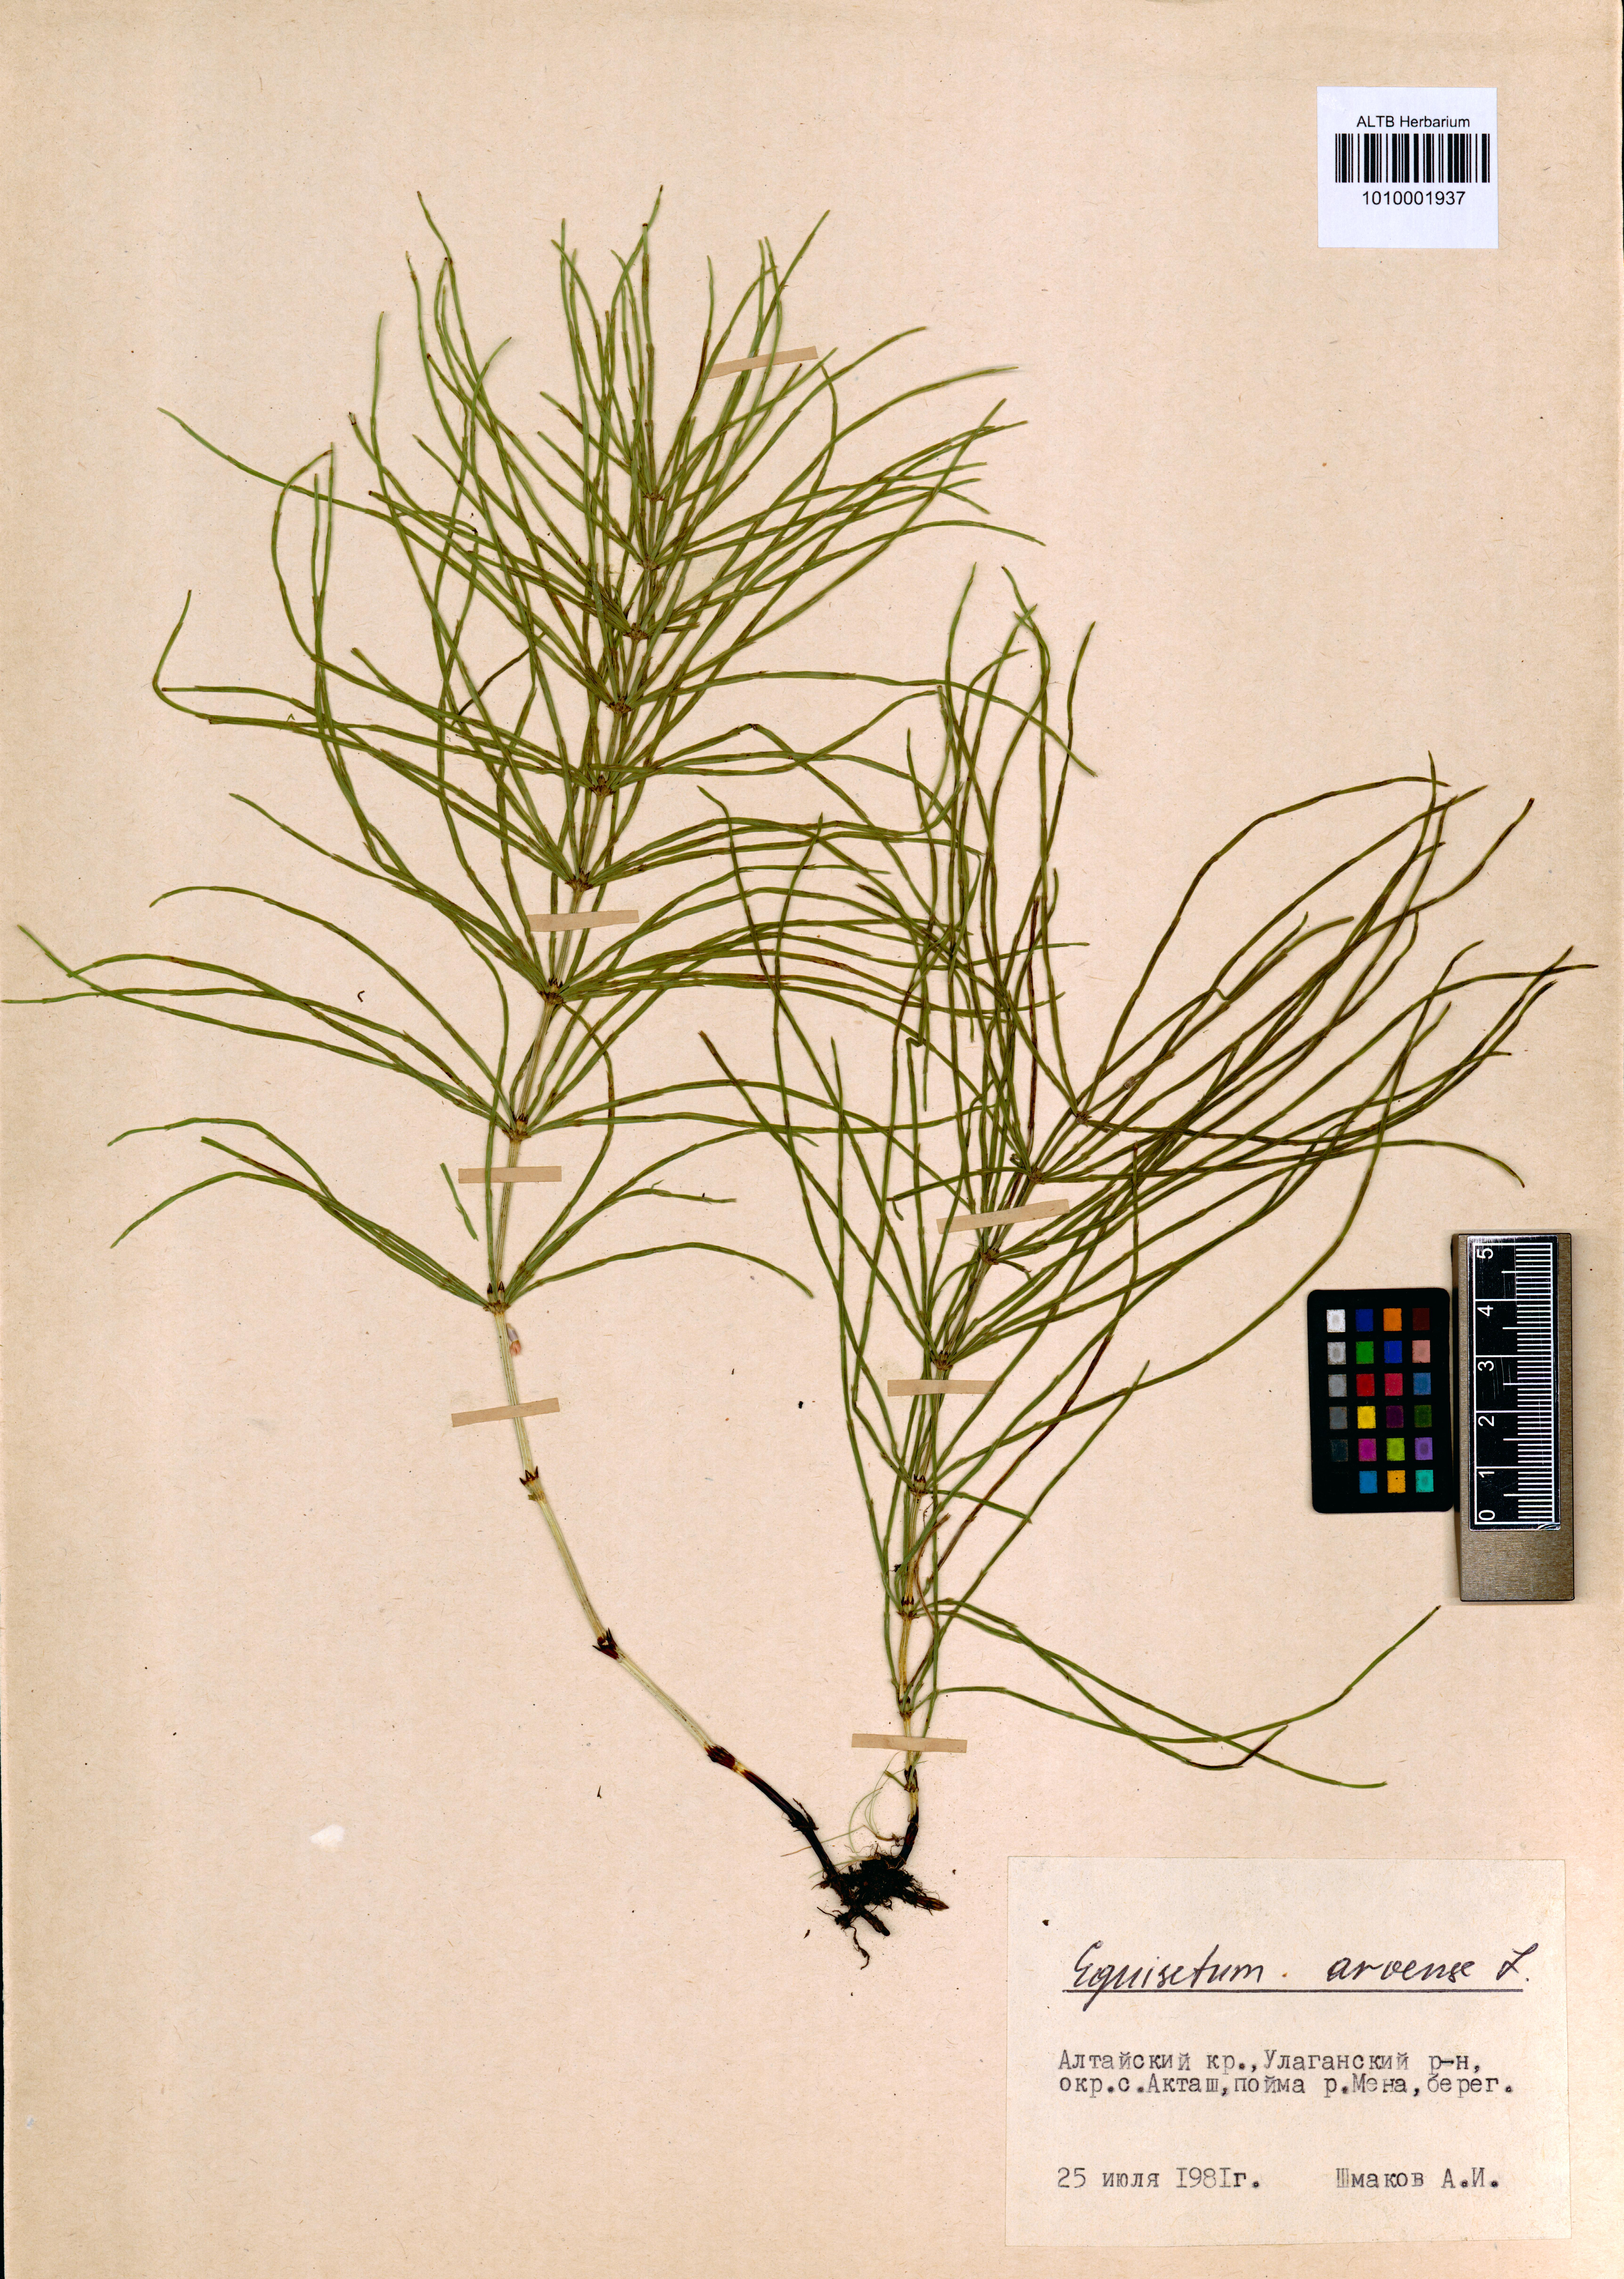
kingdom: Plantae
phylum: Tracheophyta
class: Polypodiopsida
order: Equisetales
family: Equisetaceae
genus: Equisetum
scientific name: Equisetum arvense
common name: Field horsetail
